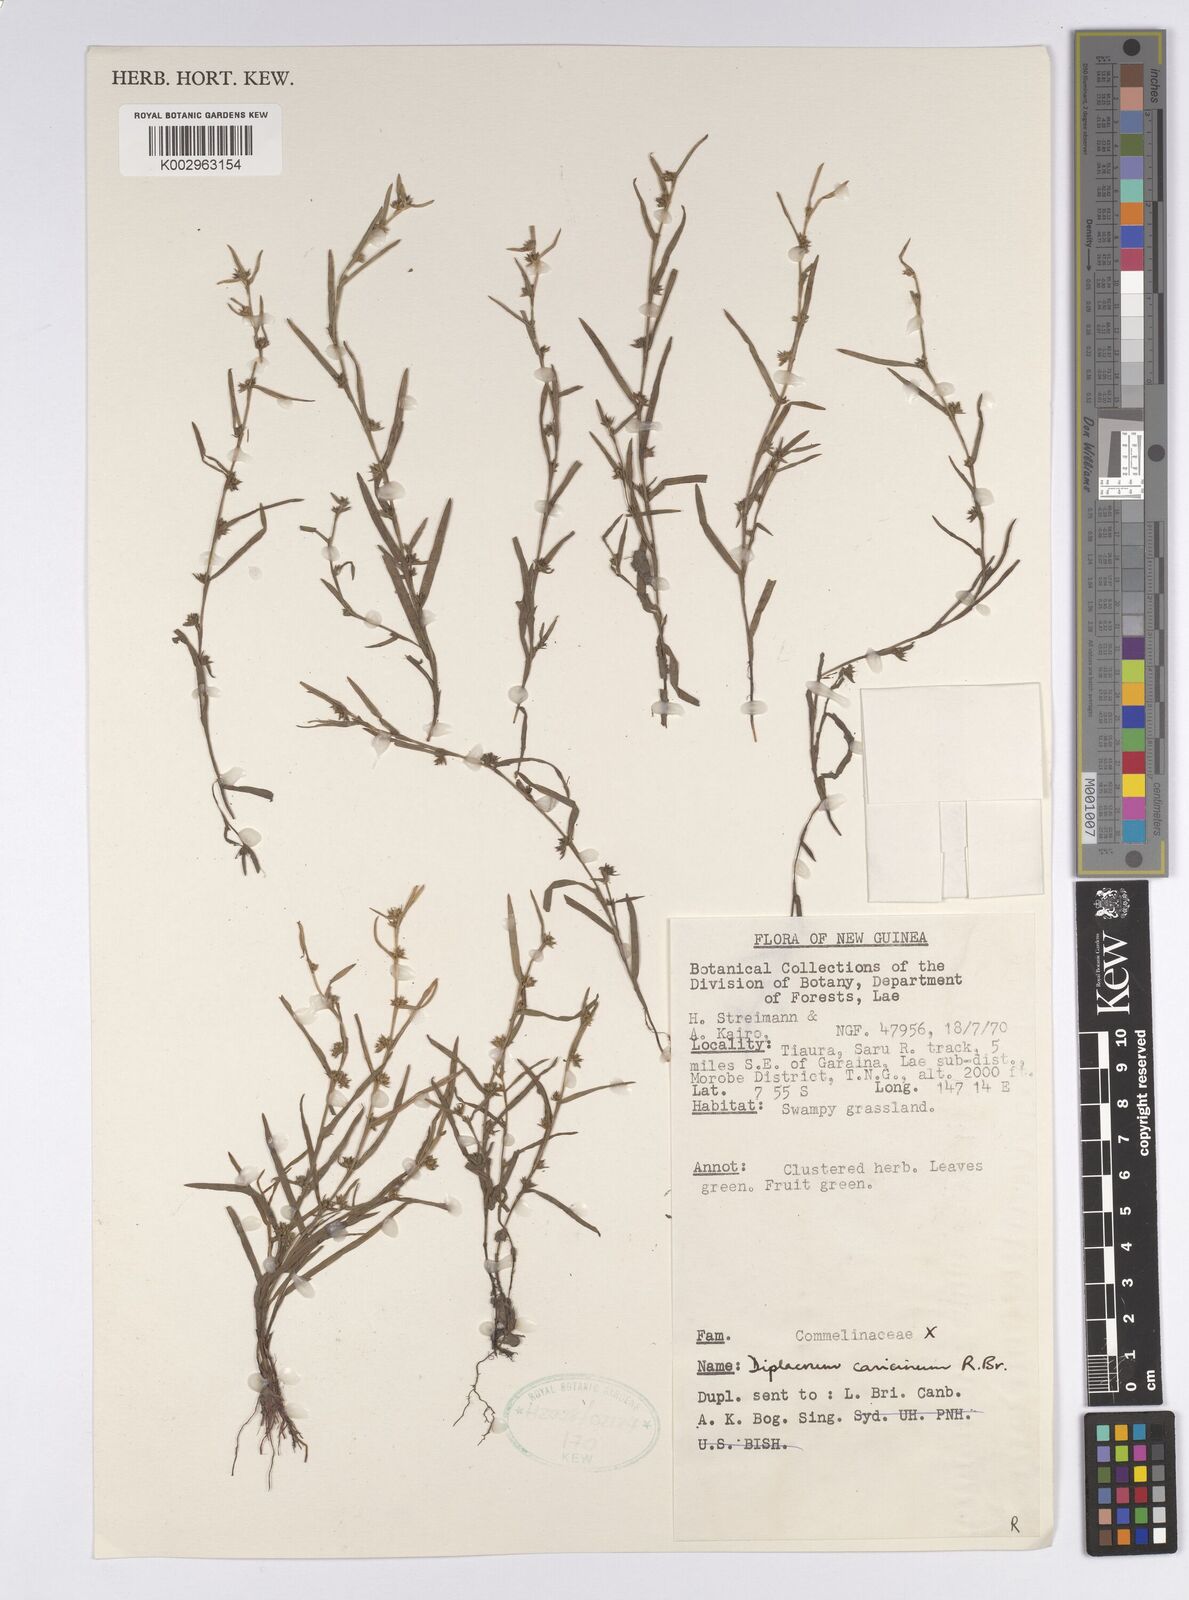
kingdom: Plantae
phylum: Tracheophyta
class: Liliopsida
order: Poales
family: Cyperaceae
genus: Diplacrum
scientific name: Diplacrum caricinum
